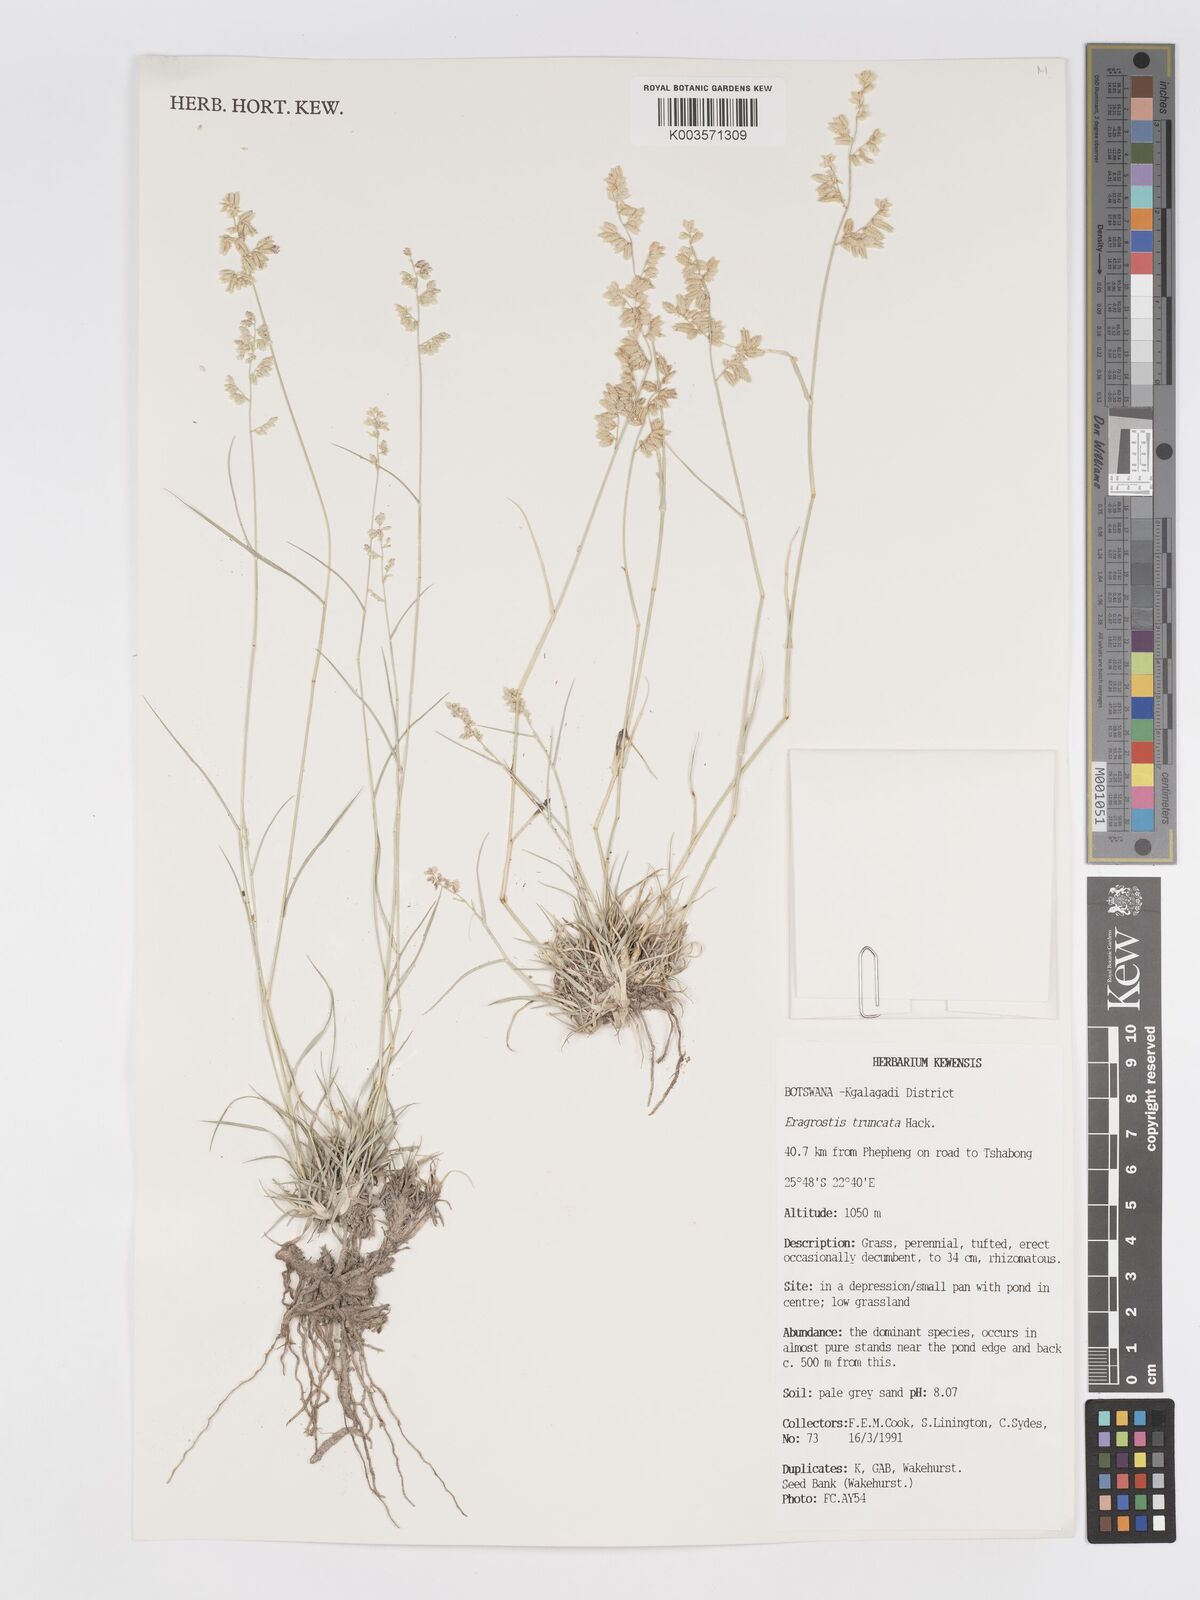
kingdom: Plantae
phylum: Tracheophyta
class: Liliopsida
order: Poales
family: Poaceae
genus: Eragrostis
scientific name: Eragrostis truncata
